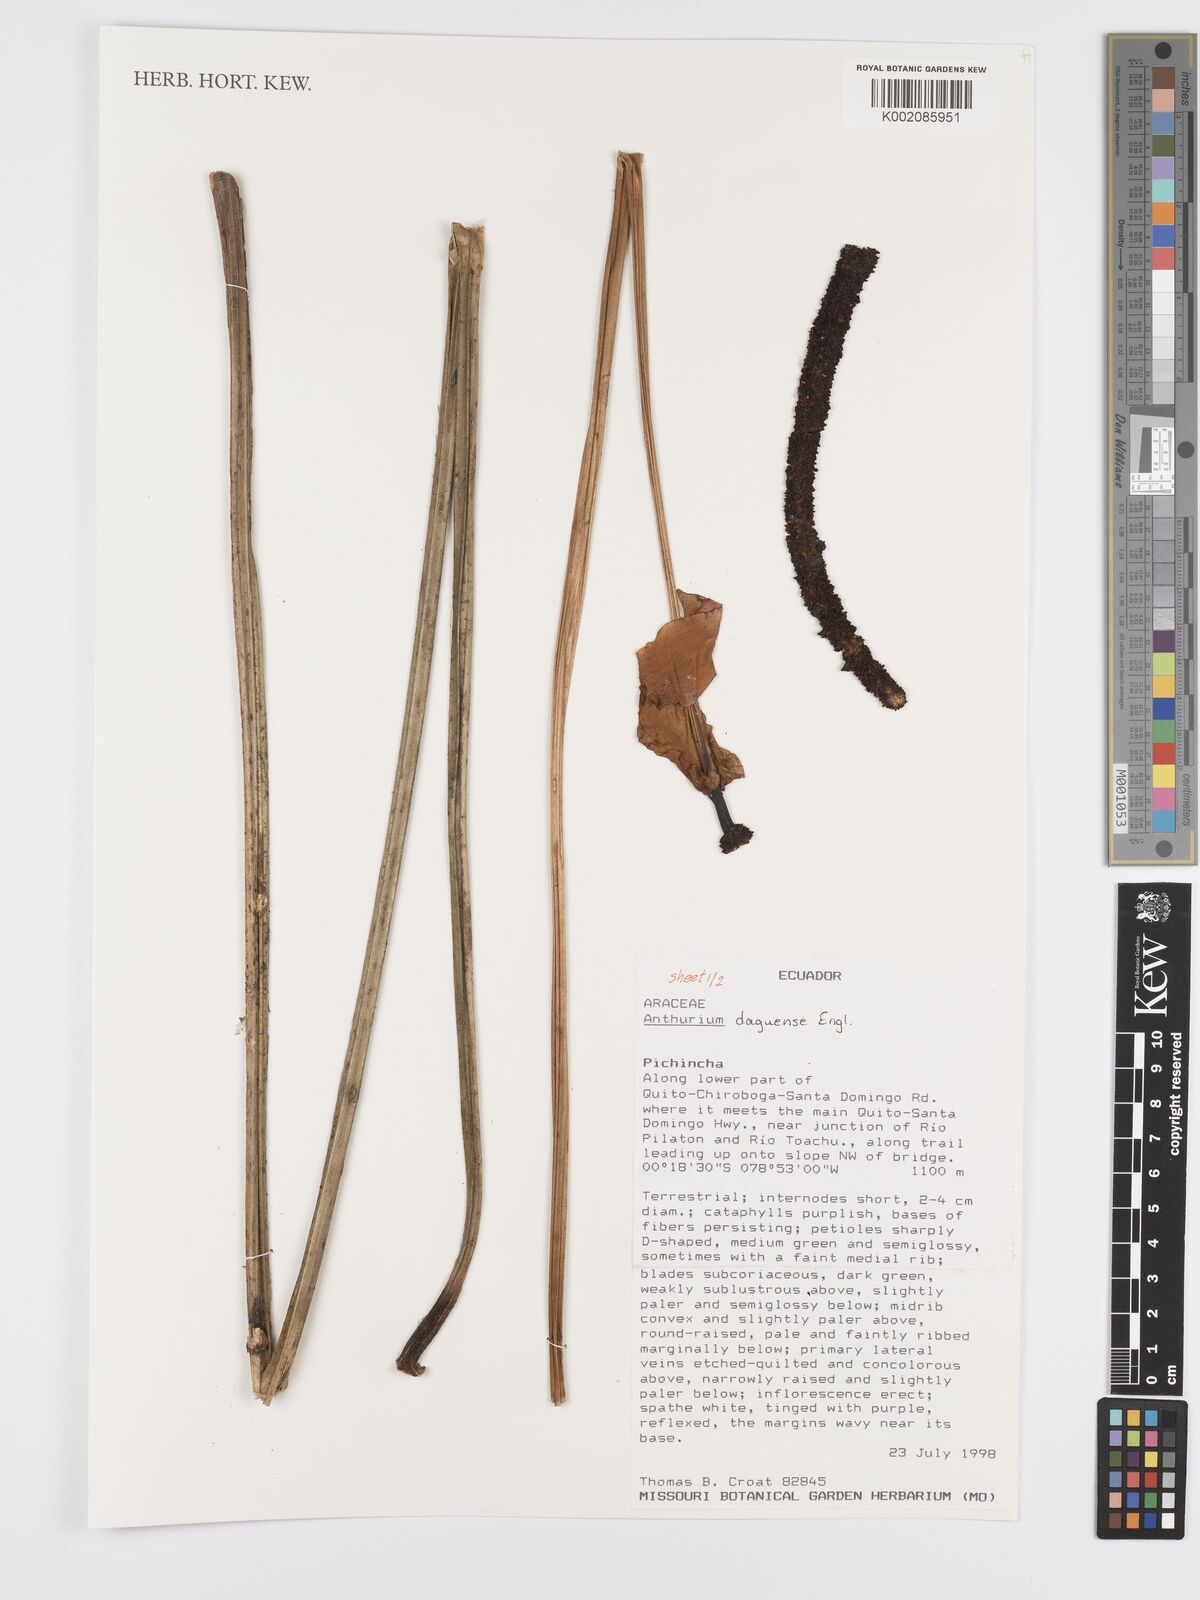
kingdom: Plantae
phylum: Tracheophyta
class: Liliopsida
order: Alismatales
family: Araceae
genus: Anthurium
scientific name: Anthurium daguense
